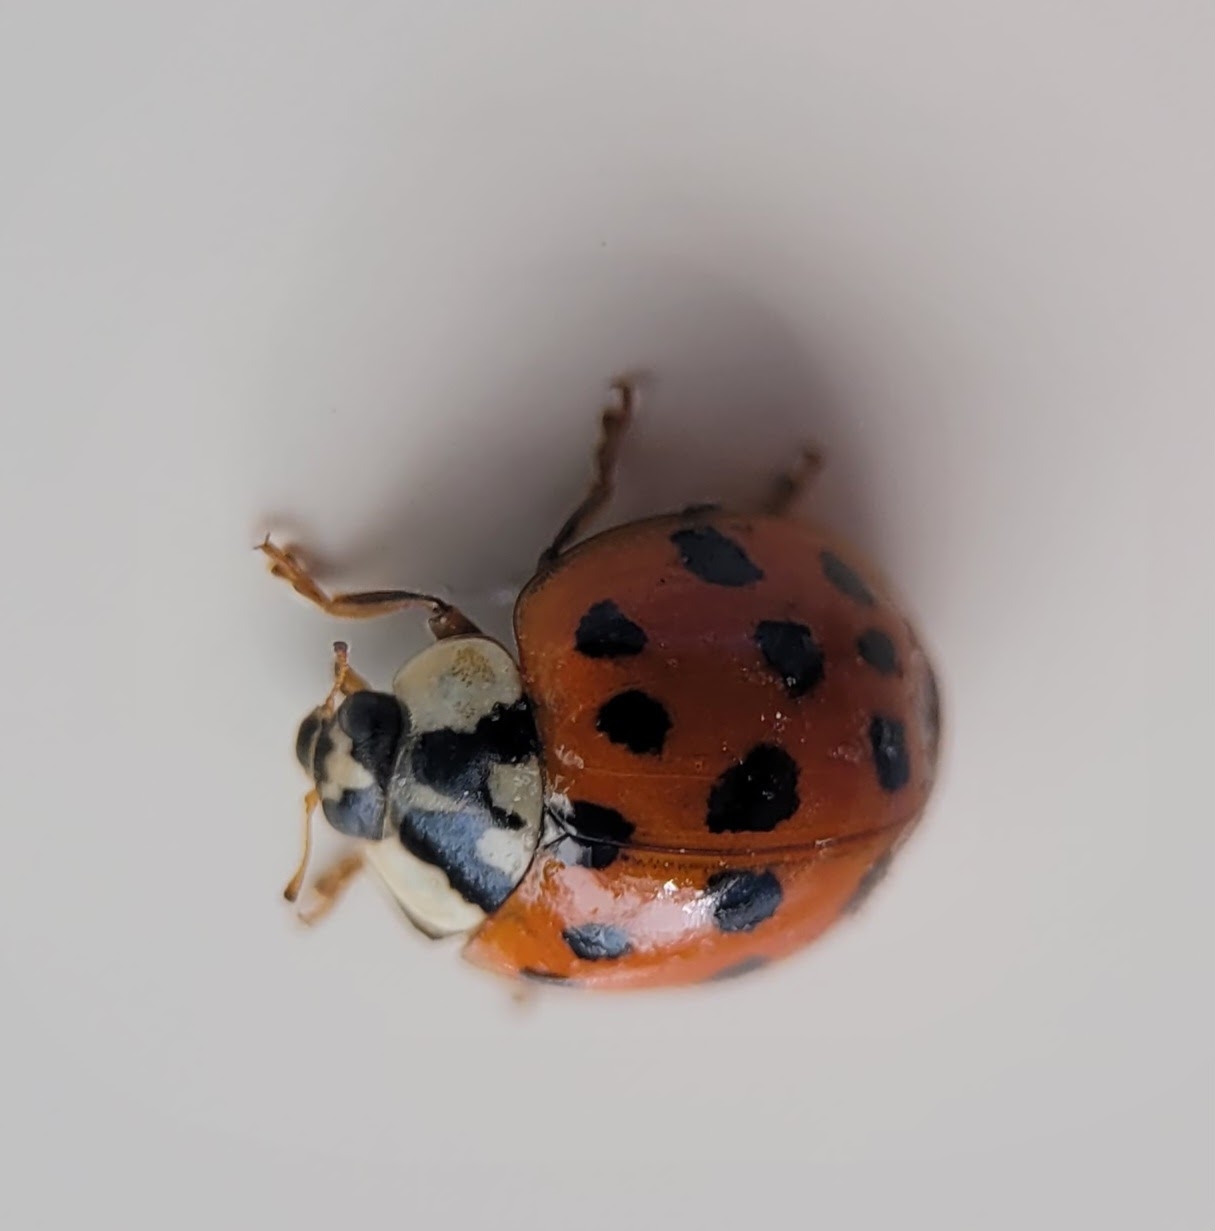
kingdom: Animalia
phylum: Arthropoda
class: Insecta
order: Coleoptera
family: Coccinellidae
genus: Harmonia
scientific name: Harmonia axyridis
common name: Harlekinmariehøne
